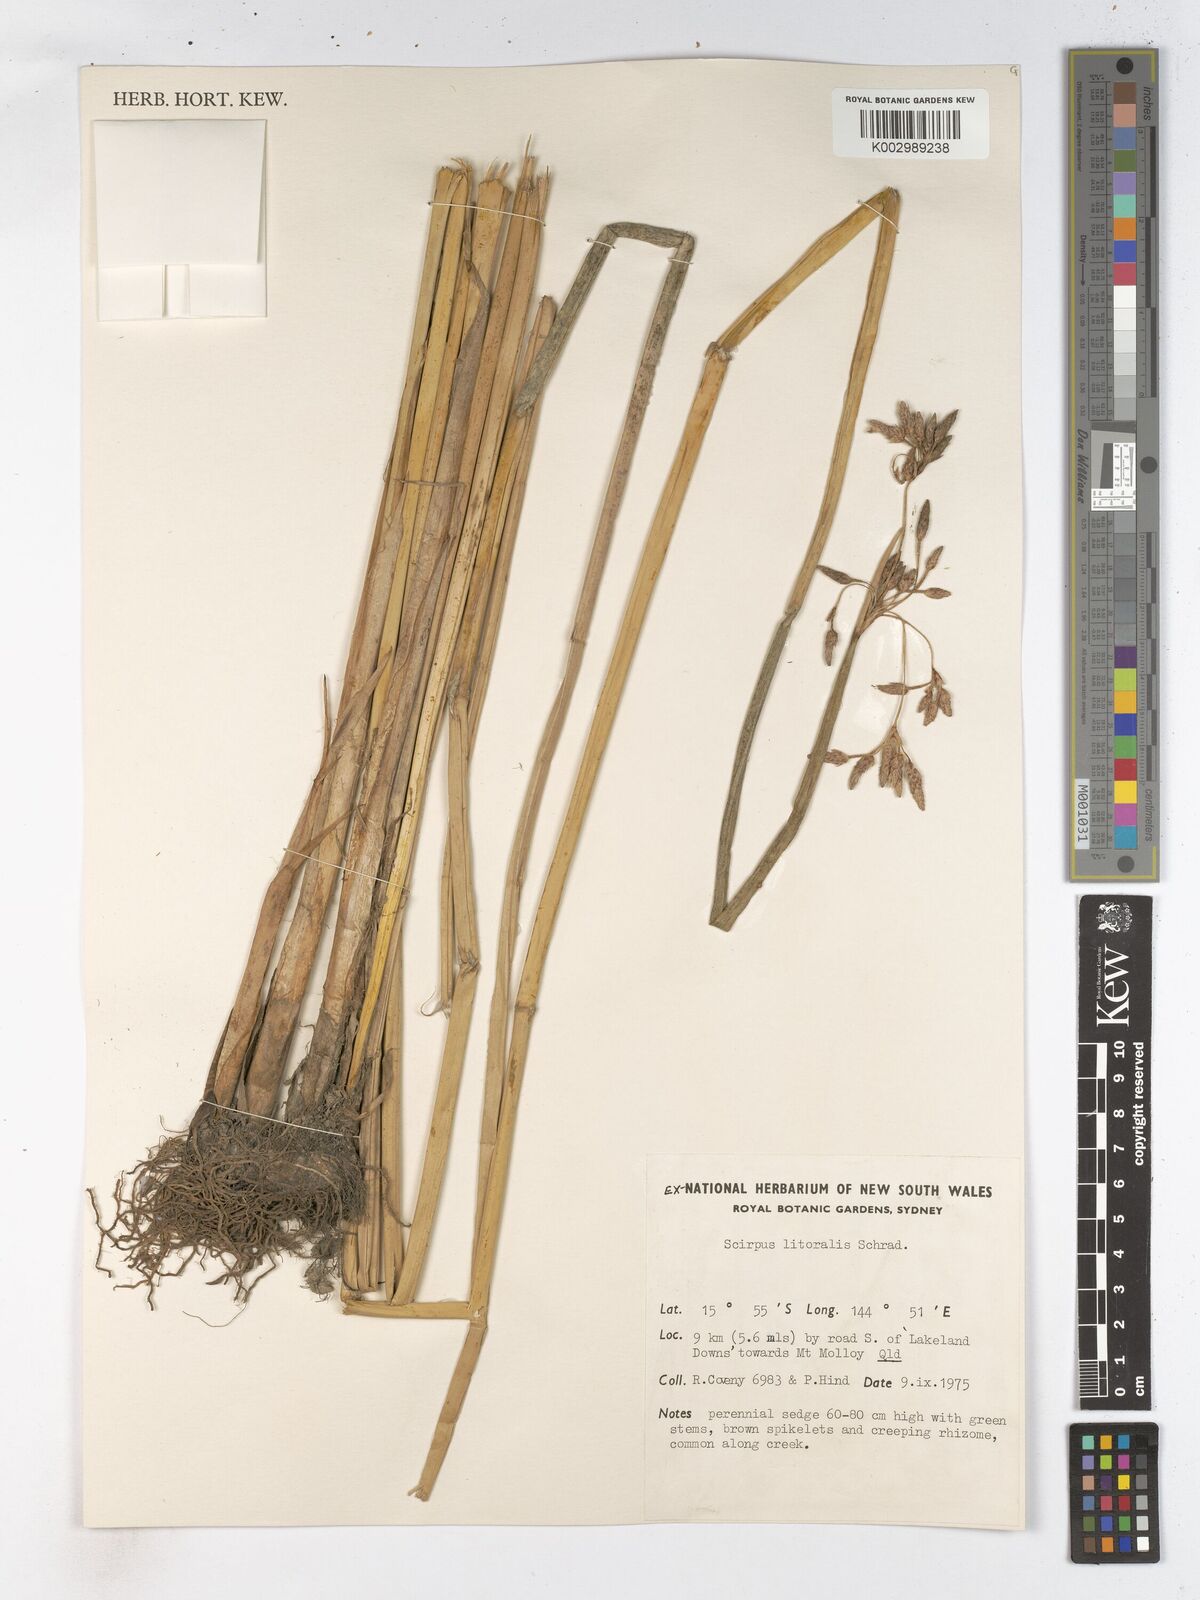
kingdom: Plantae
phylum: Tracheophyta
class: Liliopsida
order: Poales
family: Cyperaceae
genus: Schoenoplectus
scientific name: Schoenoplectus litoralis
